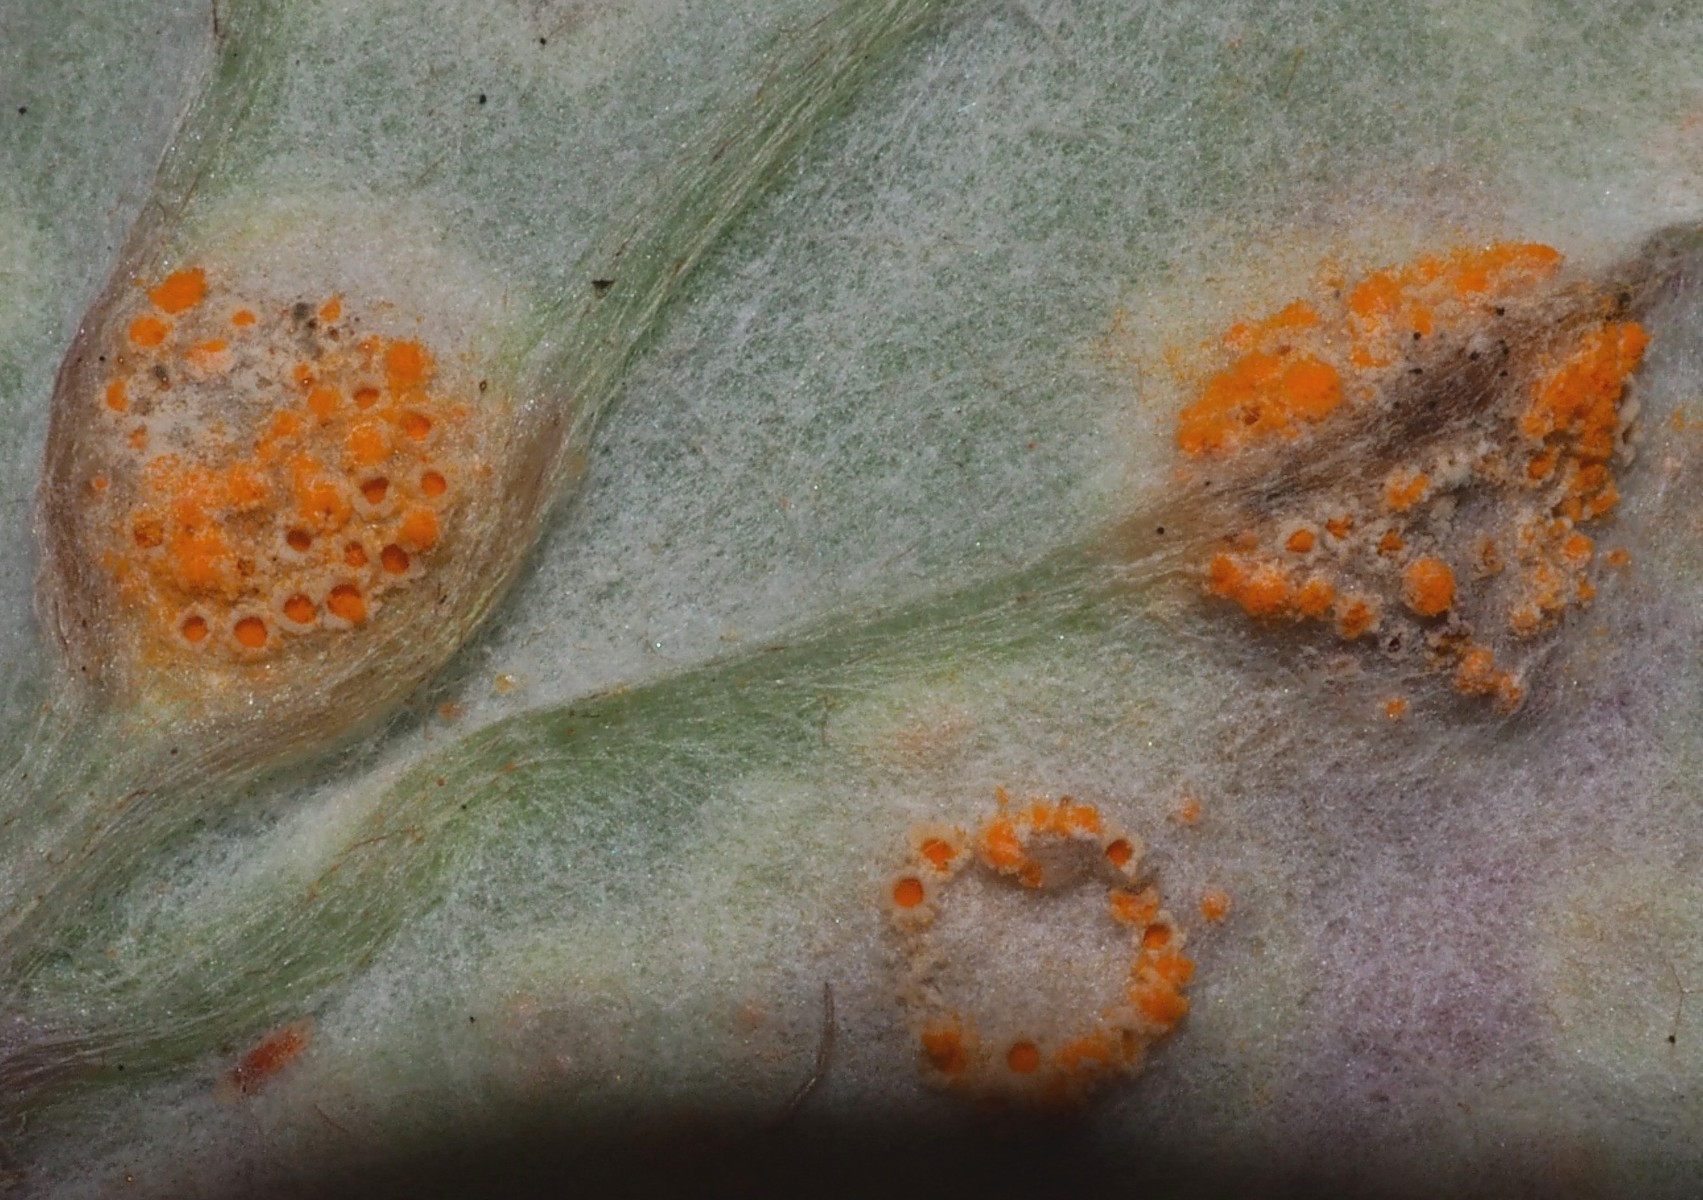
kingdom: Fungi
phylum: Basidiomycota
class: Pucciniomycetes
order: Pucciniales
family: Pucciniaceae
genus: Puccinia
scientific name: Puccinia poarum
